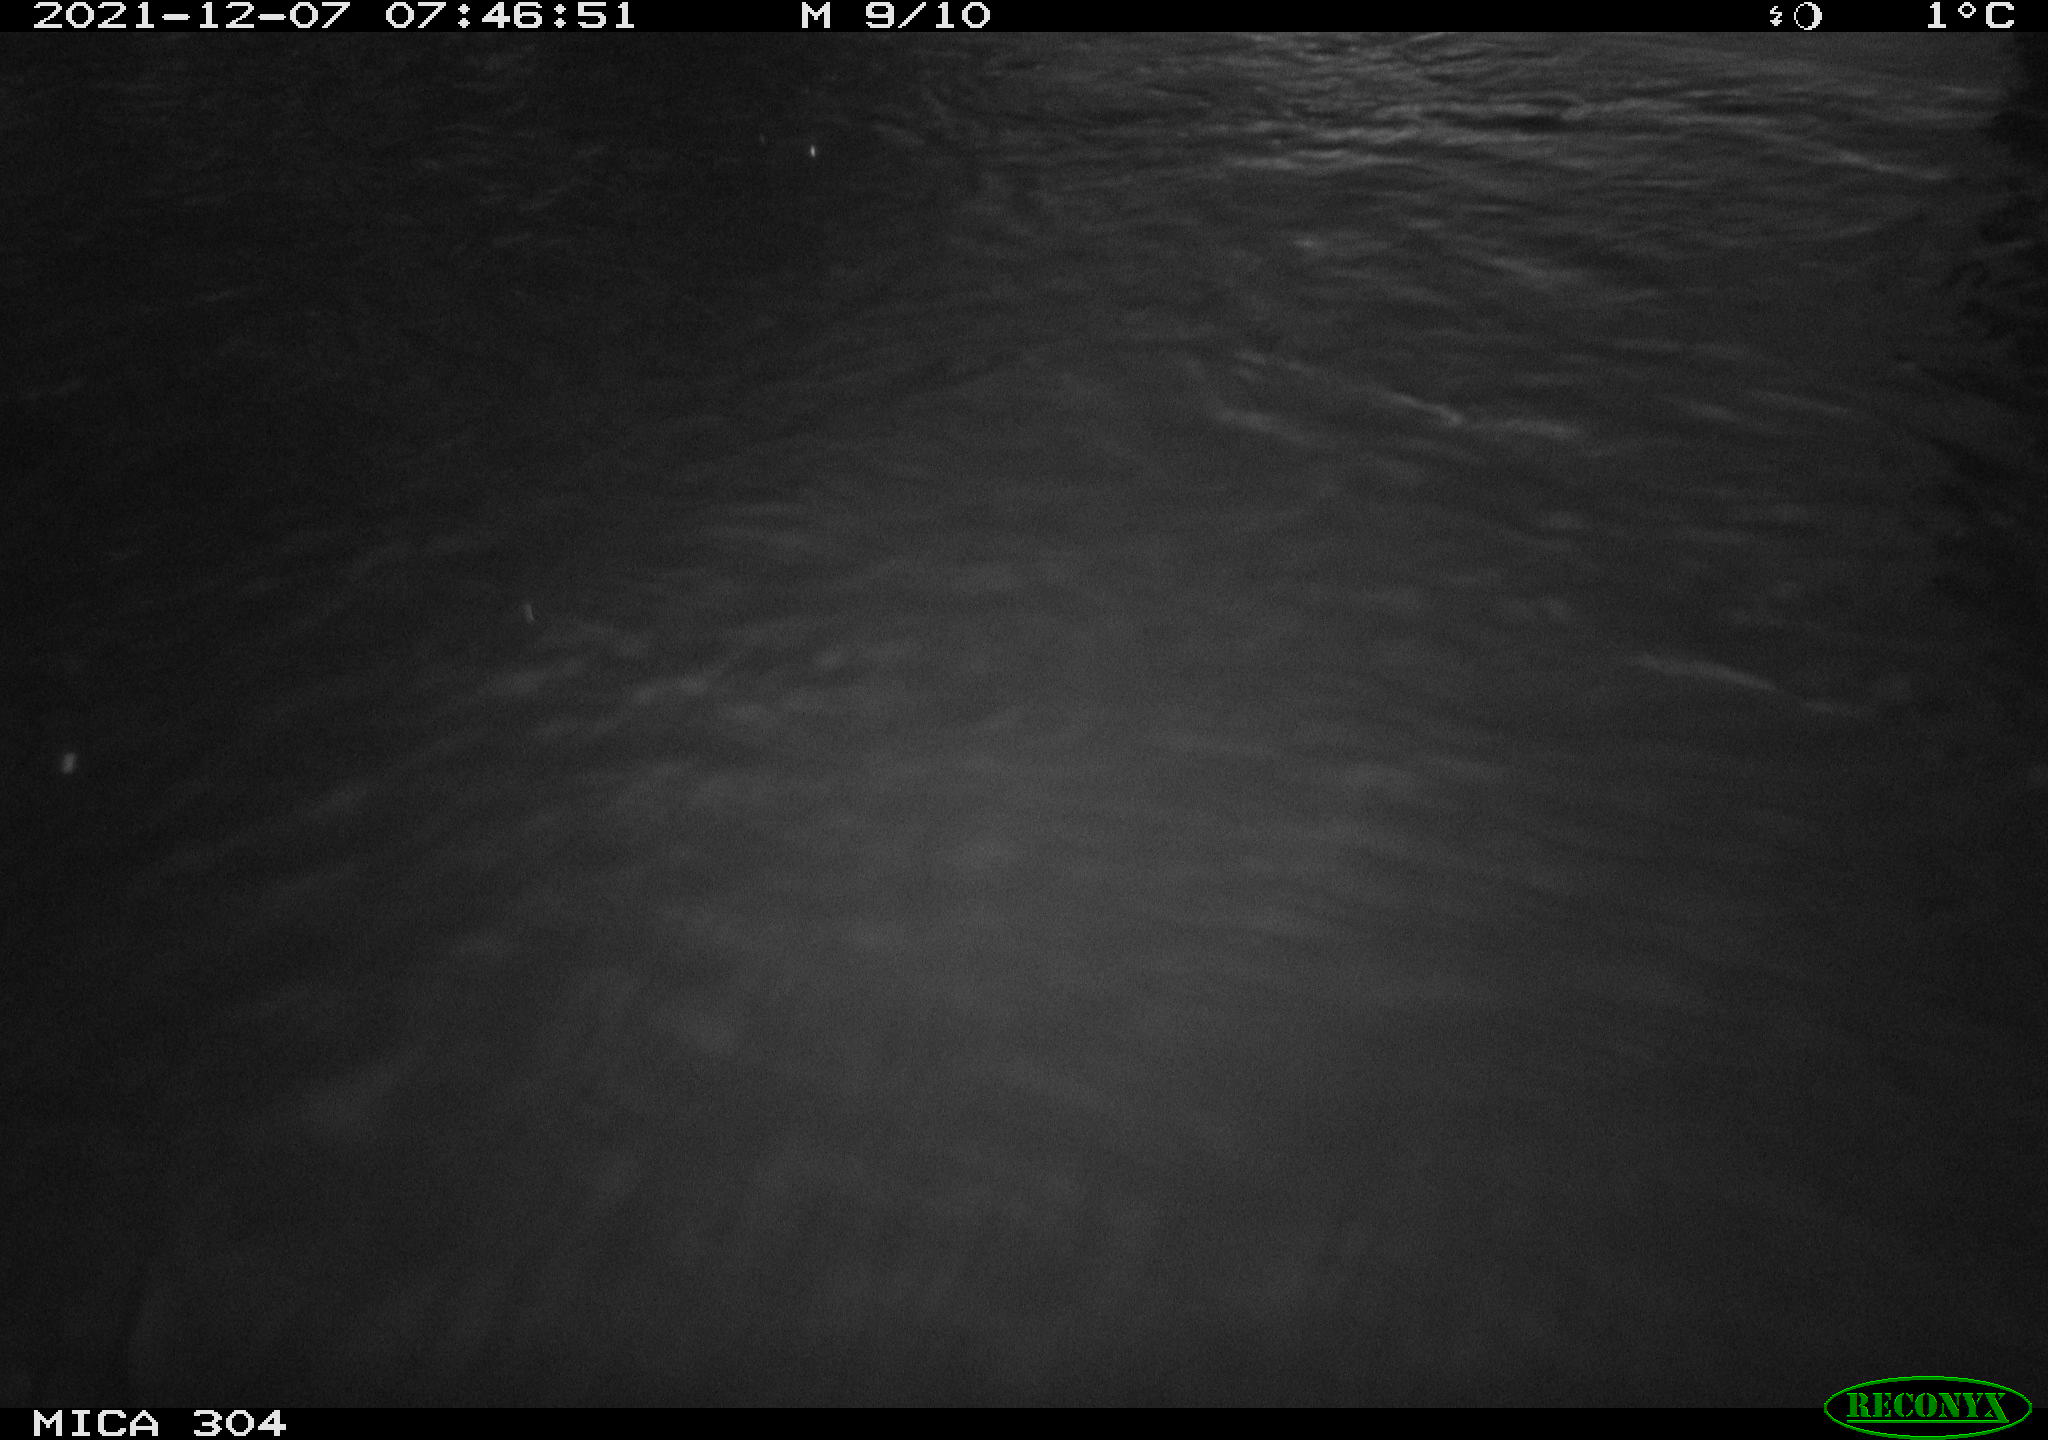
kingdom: Animalia
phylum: Chordata
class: Aves
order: Gruiformes
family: Rallidae
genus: Fulica
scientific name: Fulica atra
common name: Eurasian coot
